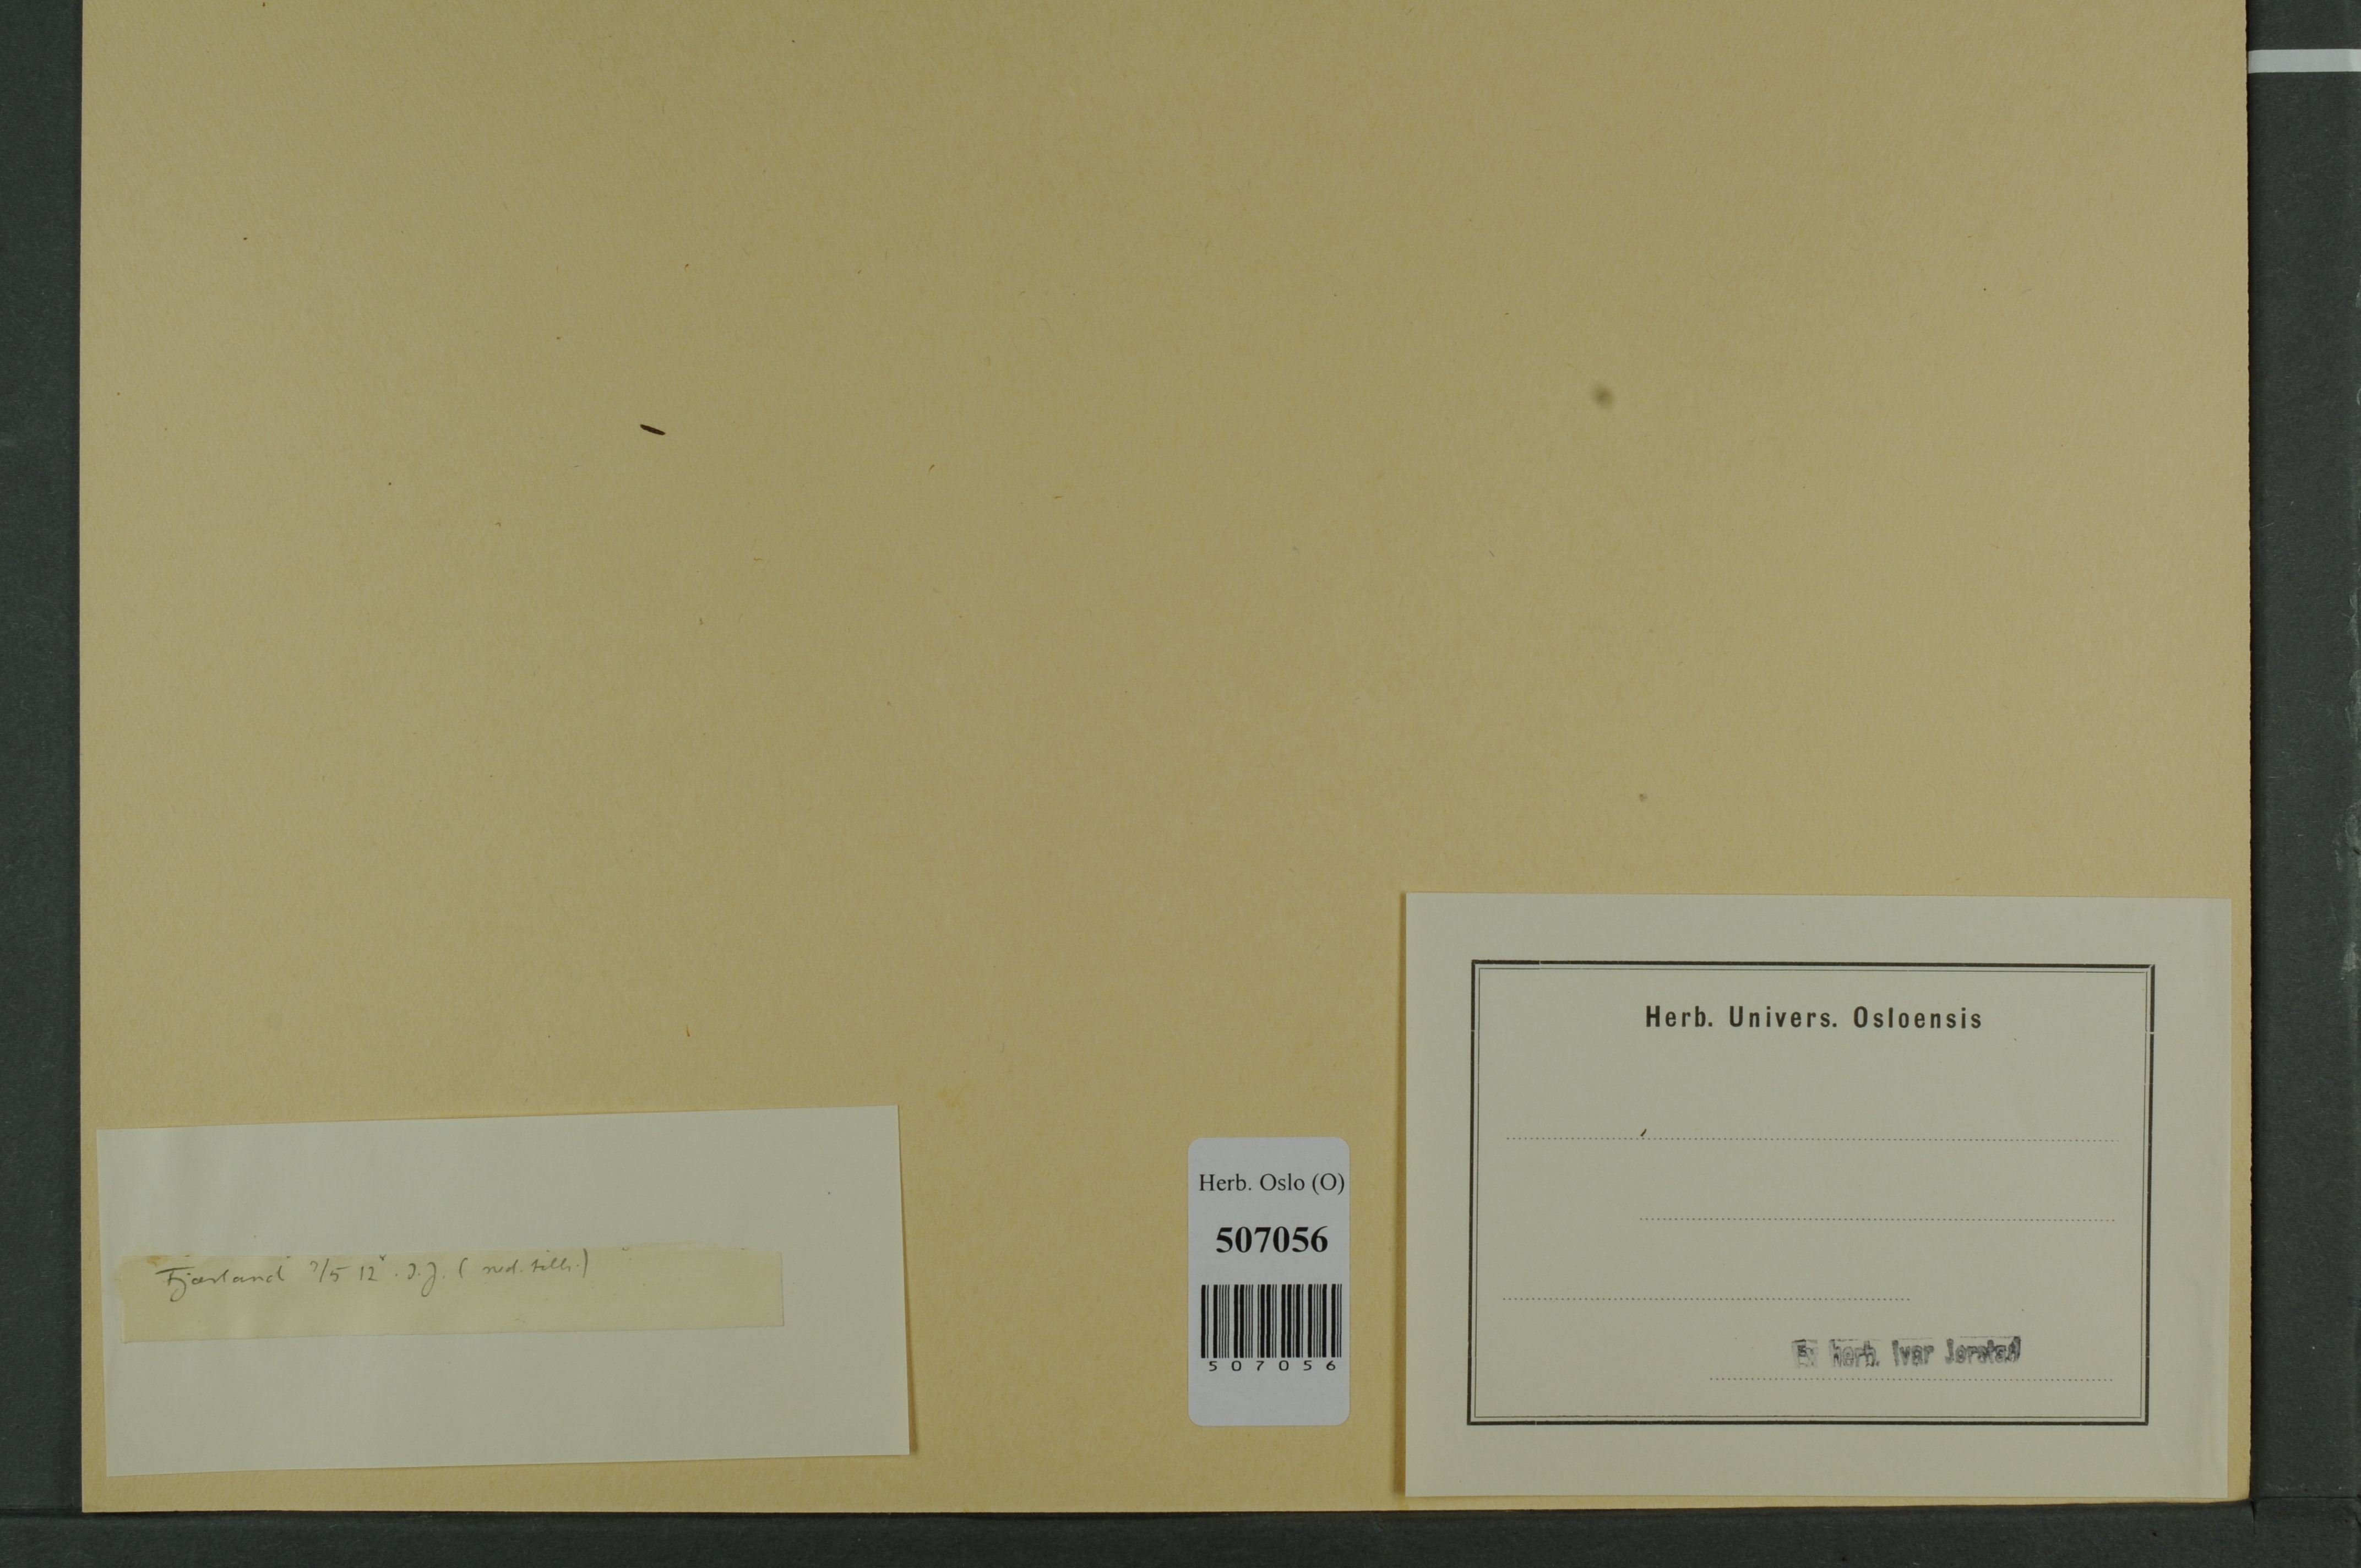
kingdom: Plantae
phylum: Tracheophyta
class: Polypodiopsida
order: Polypodiales
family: Dryopteridaceae
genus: Polystichum
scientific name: Polystichum lonchitis
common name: Holly fern
